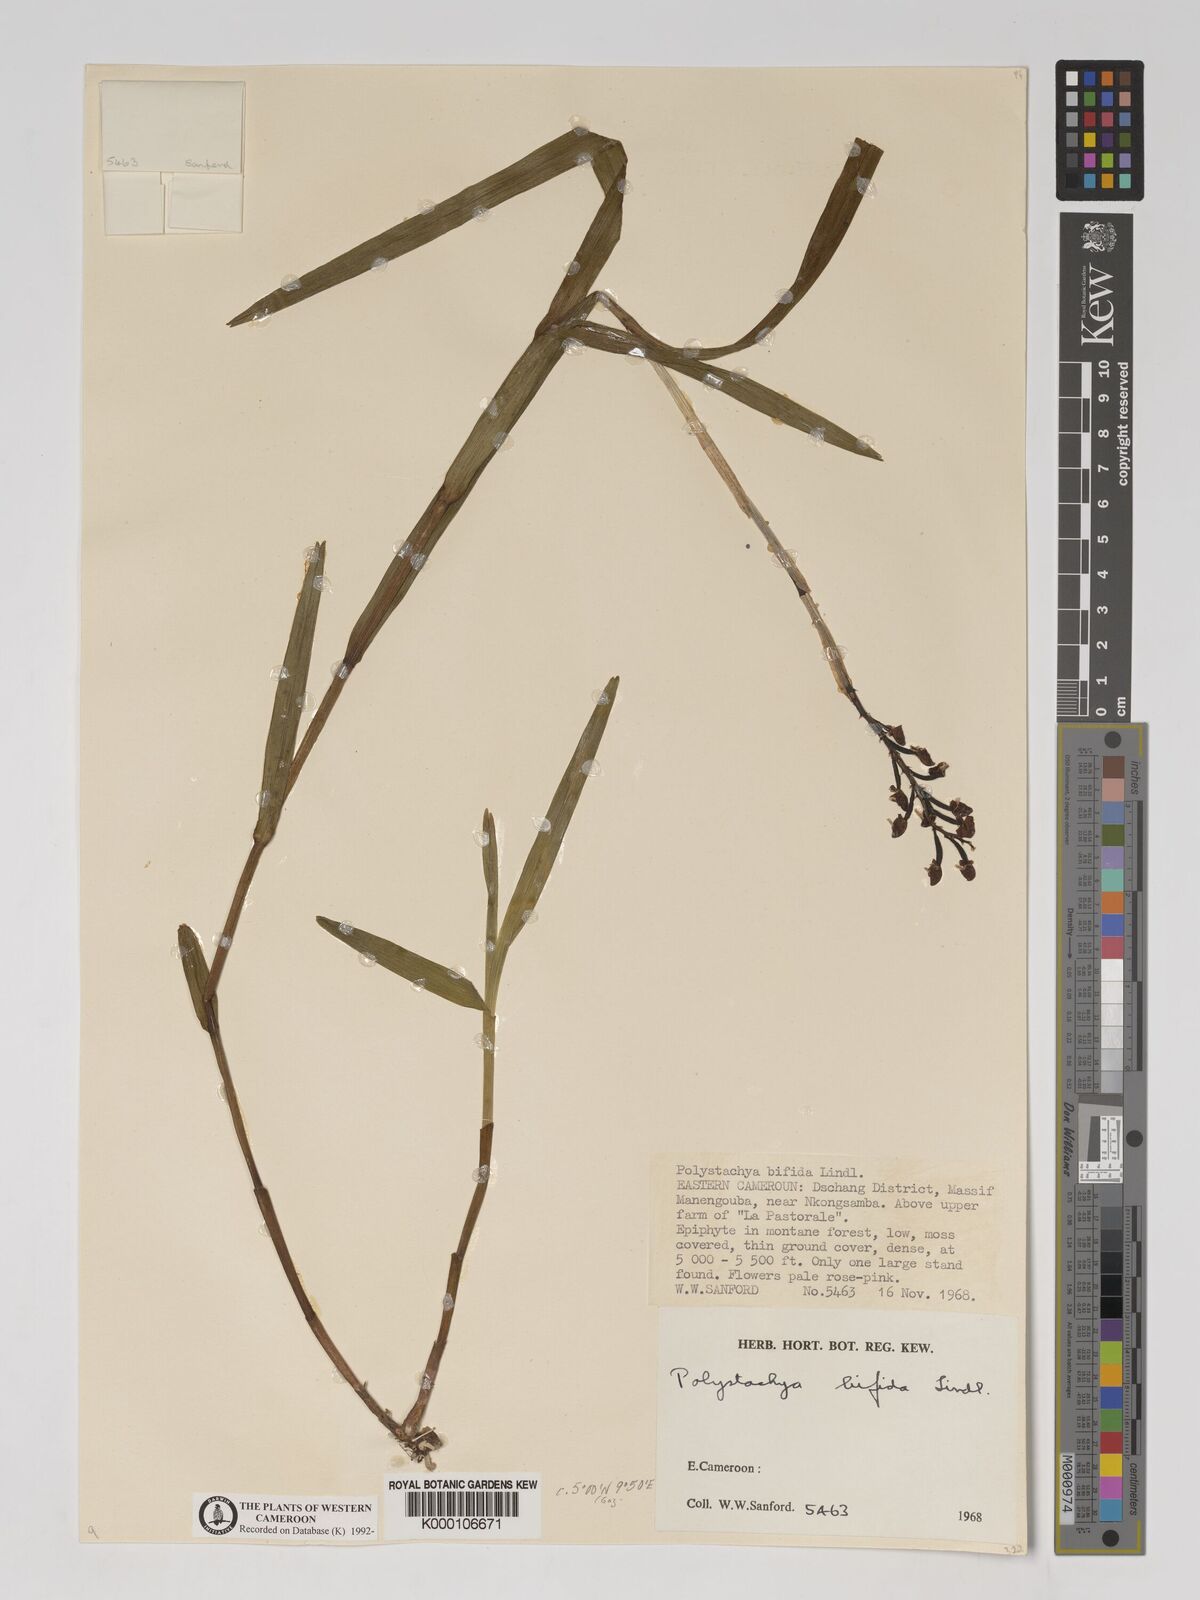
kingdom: Plantae
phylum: Tracheophyta
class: Liliopsida
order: Asparagales
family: Orchidaceae
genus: Polystachya
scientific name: Polystachya bifida
